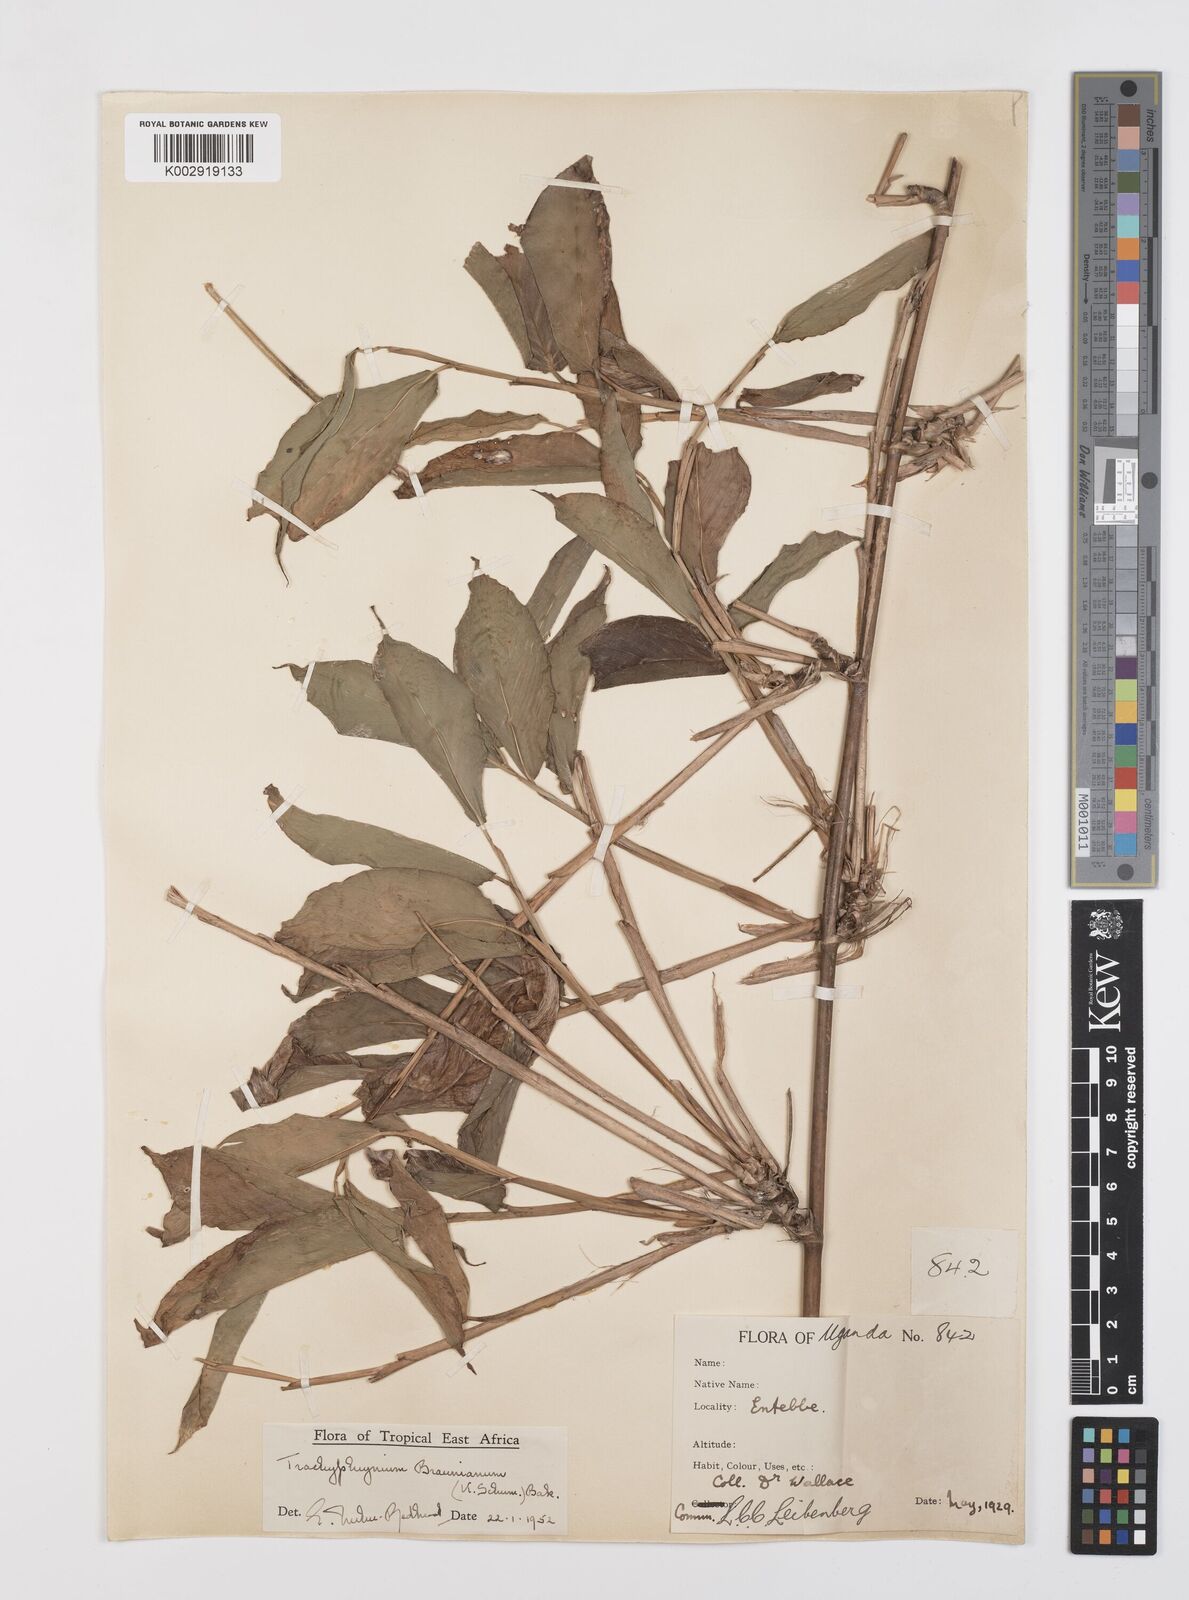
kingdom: Plantae
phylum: Tracheophyta
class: Liliopsida
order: Zingiberales
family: Marantaceae
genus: Trachyphrynium
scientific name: Trachyphrynium braunianum
